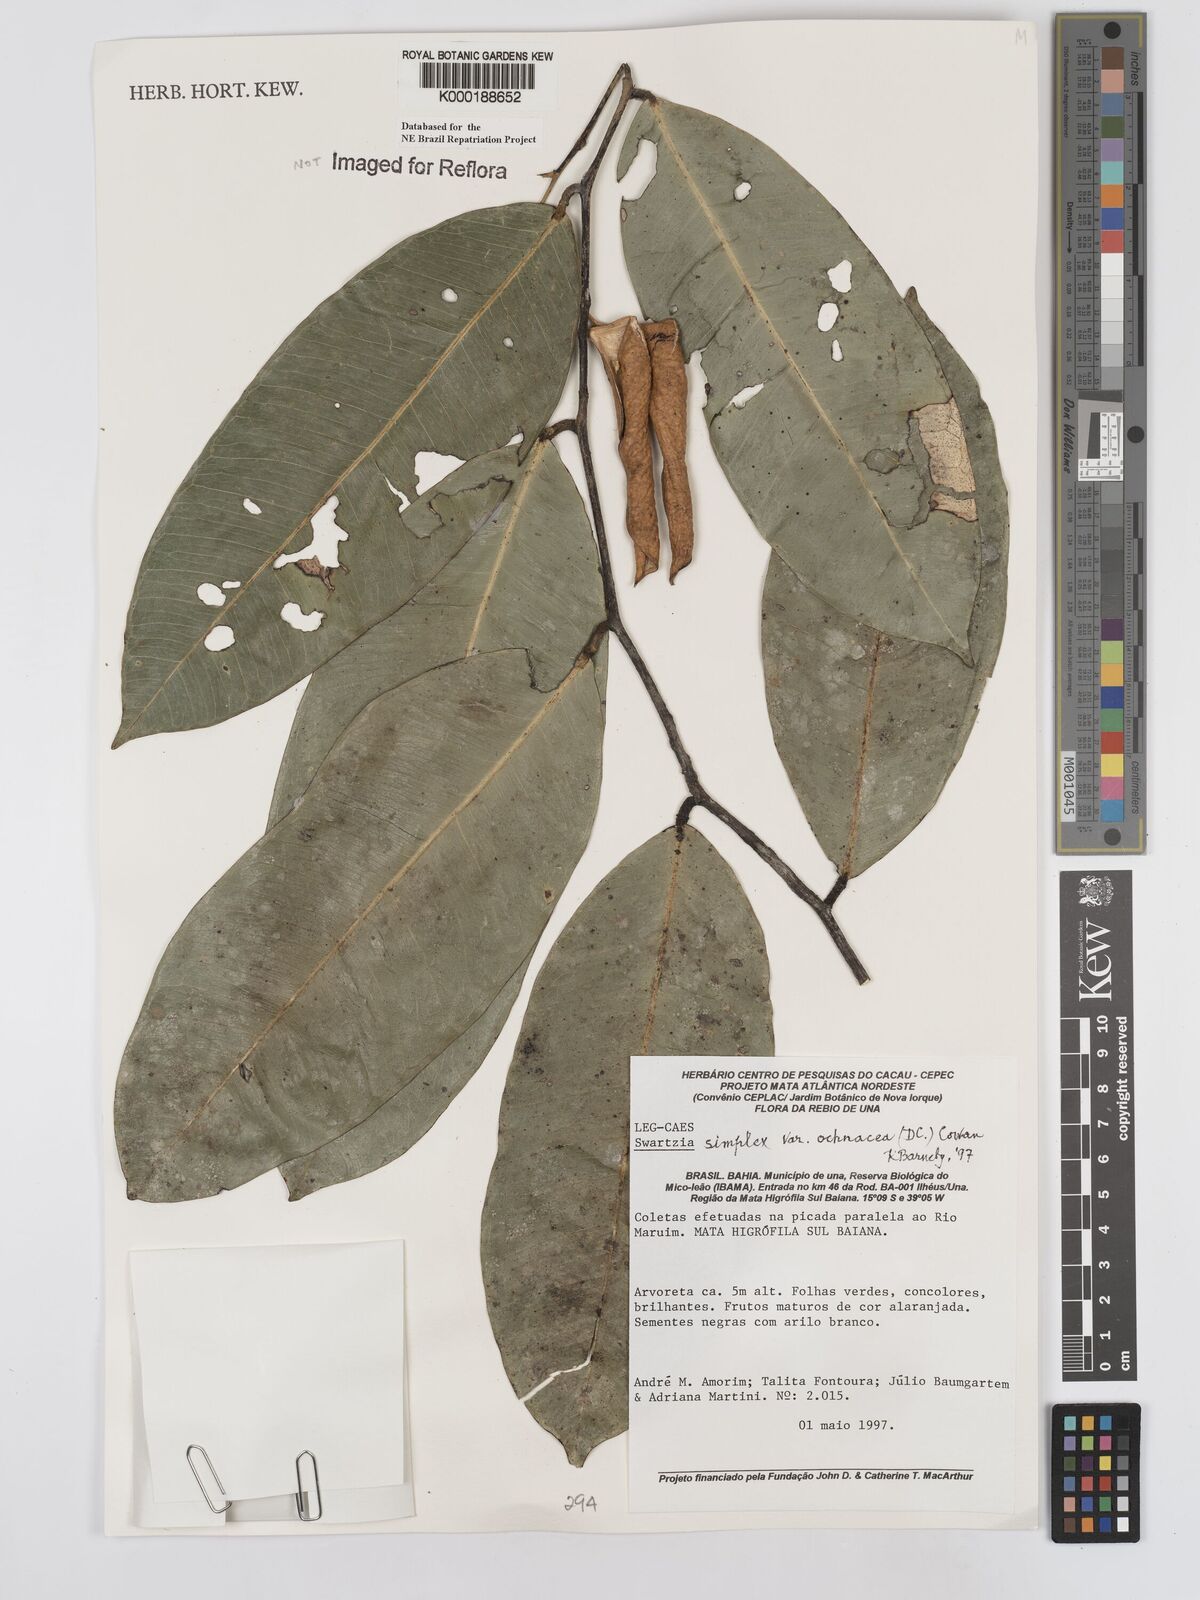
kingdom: Plantae
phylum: Tracheophyta
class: Magnoliopsida
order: Fabales
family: Fabaceae
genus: Swartzia
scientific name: Swartzia simplex
